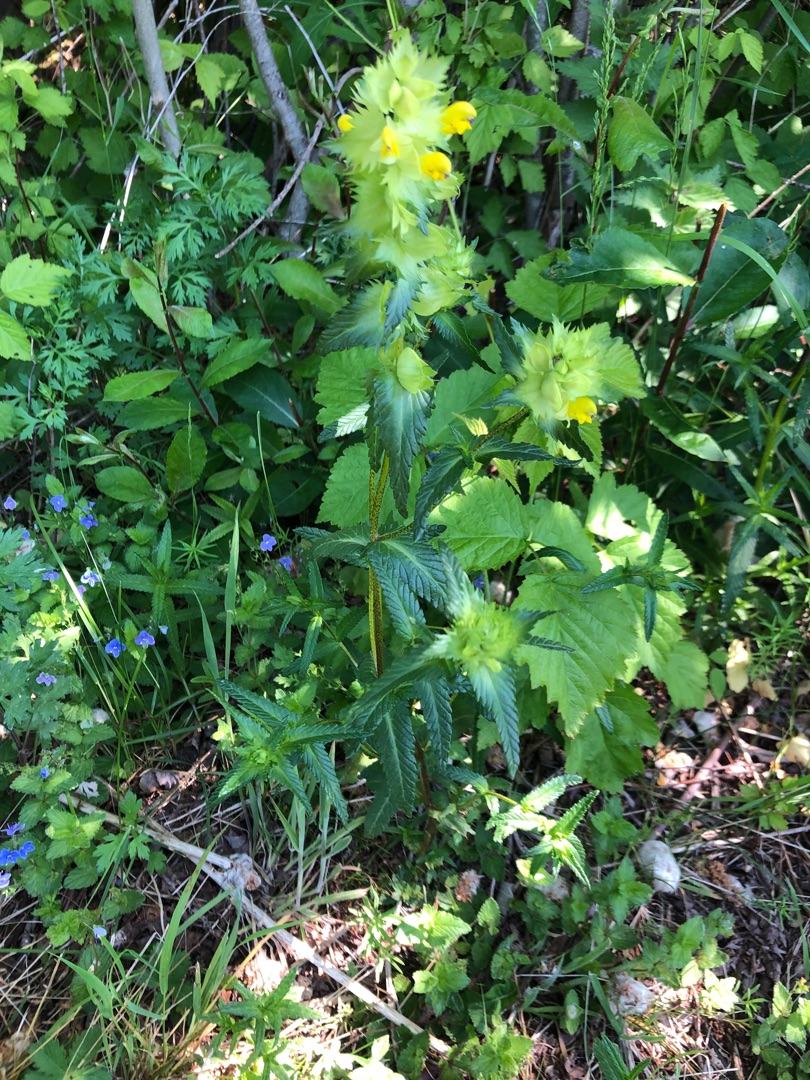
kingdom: Plantae
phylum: Tracheophyta
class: Magnoliopsida
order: Lamiales
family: Orobanchaceae
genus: Rhinanthus
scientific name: Rhinanthus
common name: Stor skjaller
